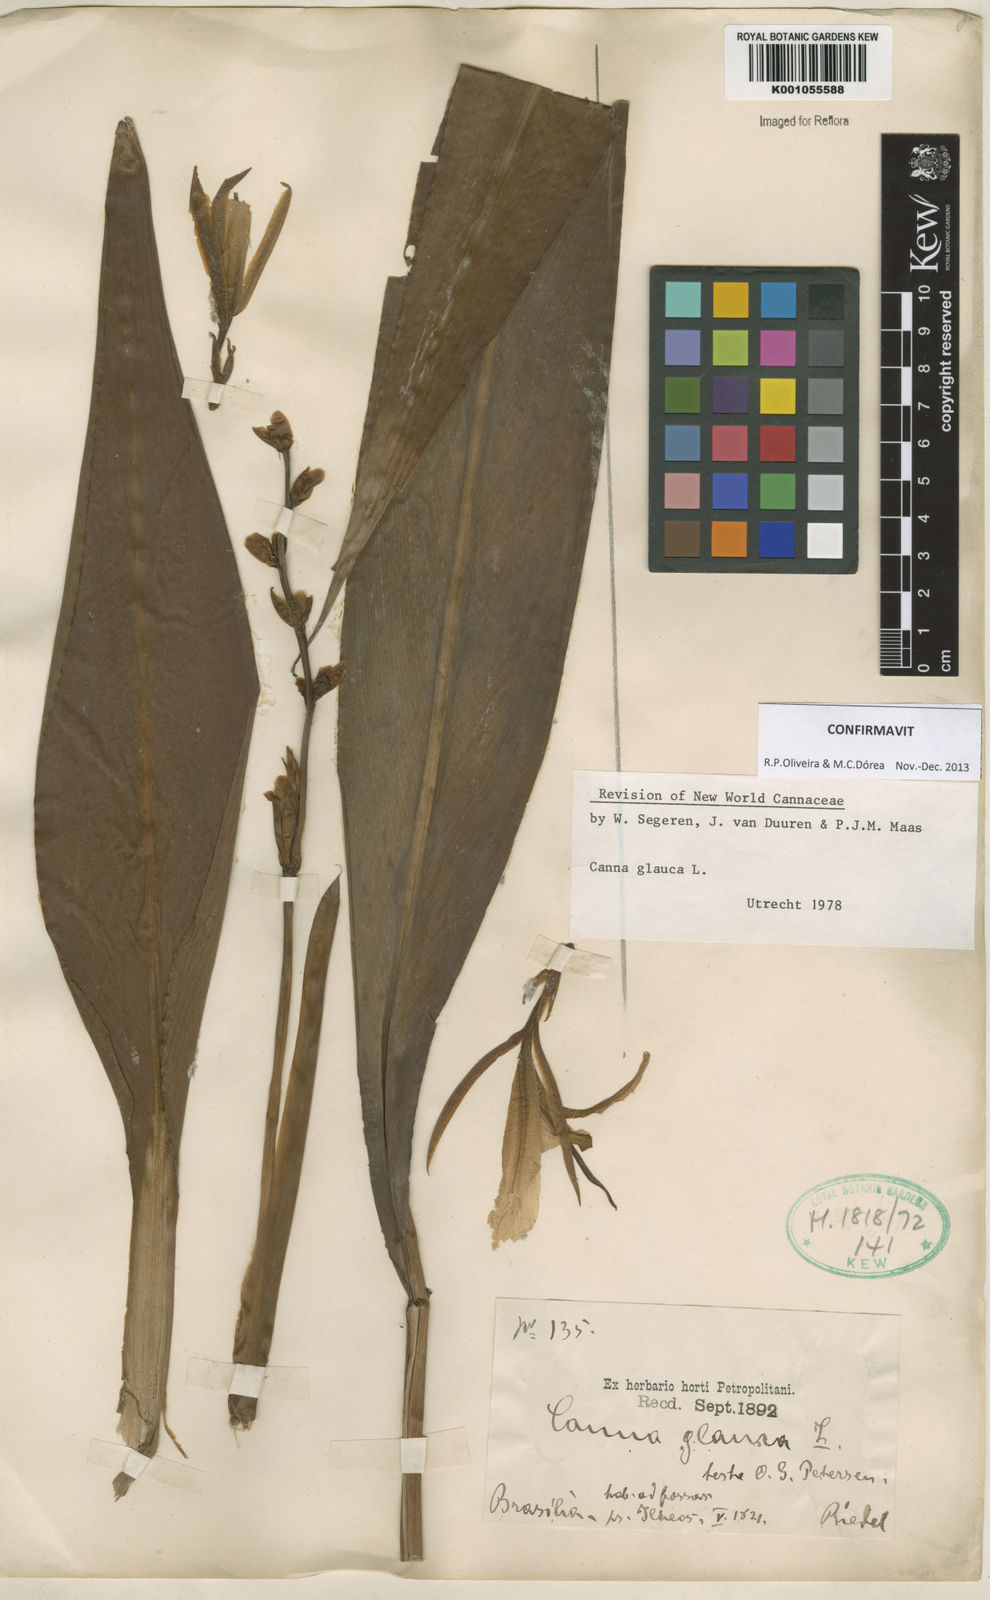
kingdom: Plantae
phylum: Tracheophyta
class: Liliopsida
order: Zingiberales
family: Cannaceae
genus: Canna
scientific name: Canna glauca
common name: Louisiana canna
